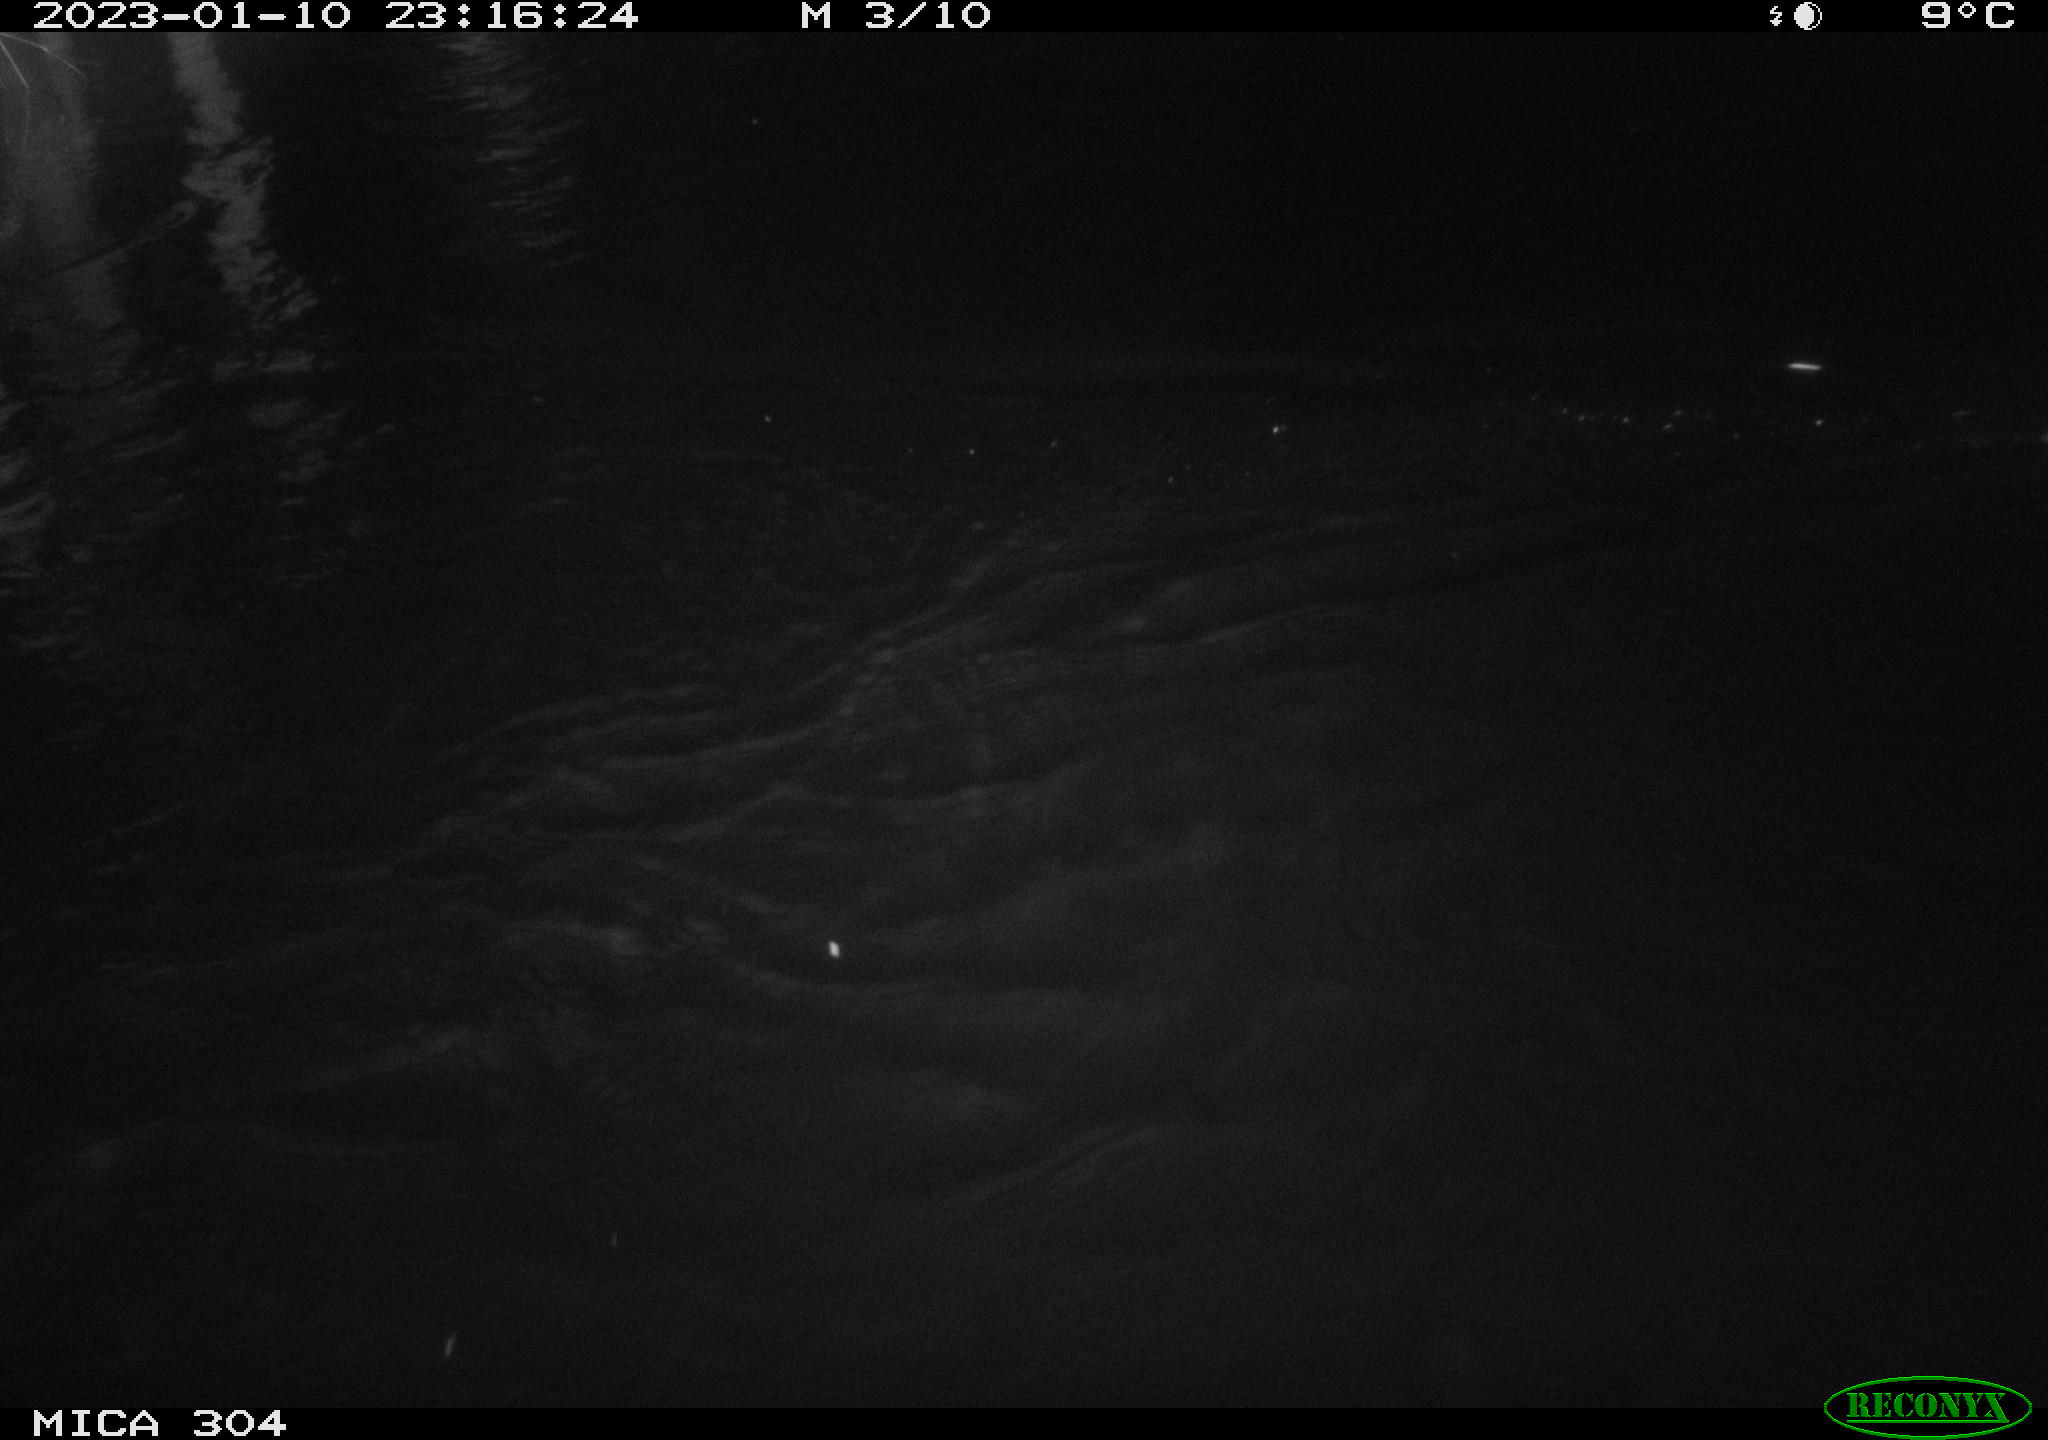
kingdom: Animalia
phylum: Chordata
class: Mammalia
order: Rodentia
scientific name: Rodentia
